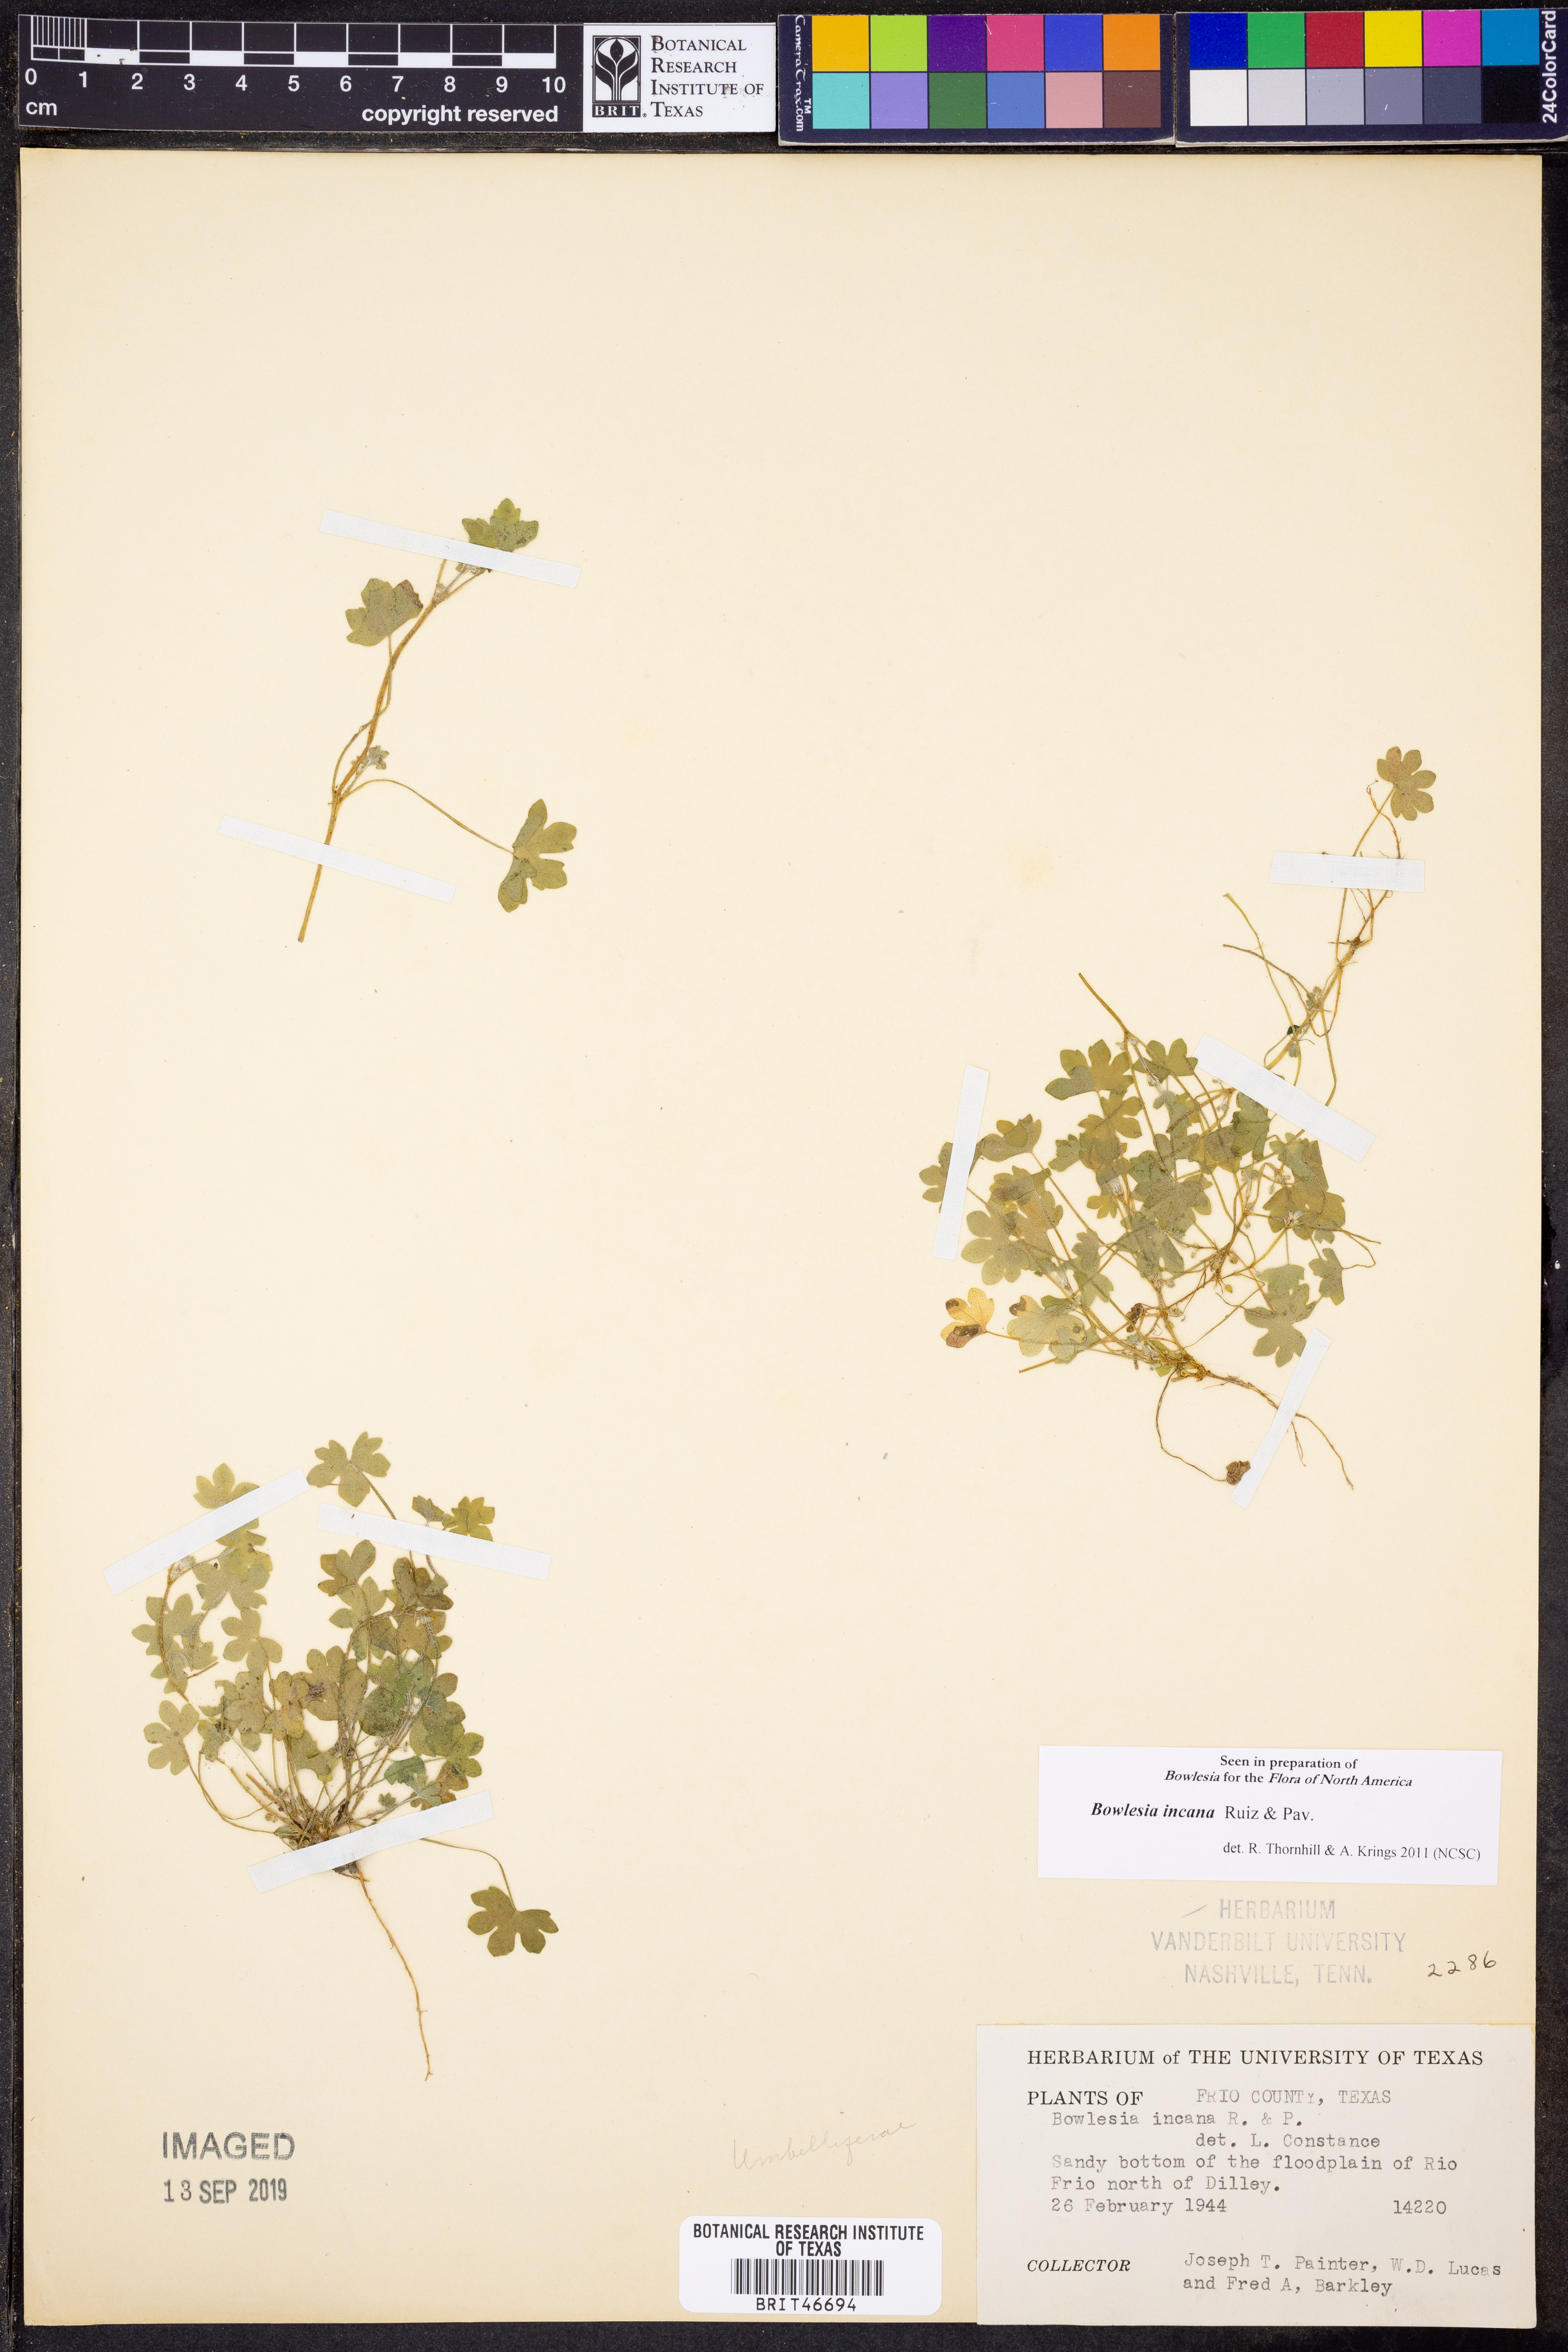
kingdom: Plantae
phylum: Tracheophyta
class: Magnoliopsida
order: Apiales
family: Apiaceae
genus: Bowlesia
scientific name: Bowlesia incana
